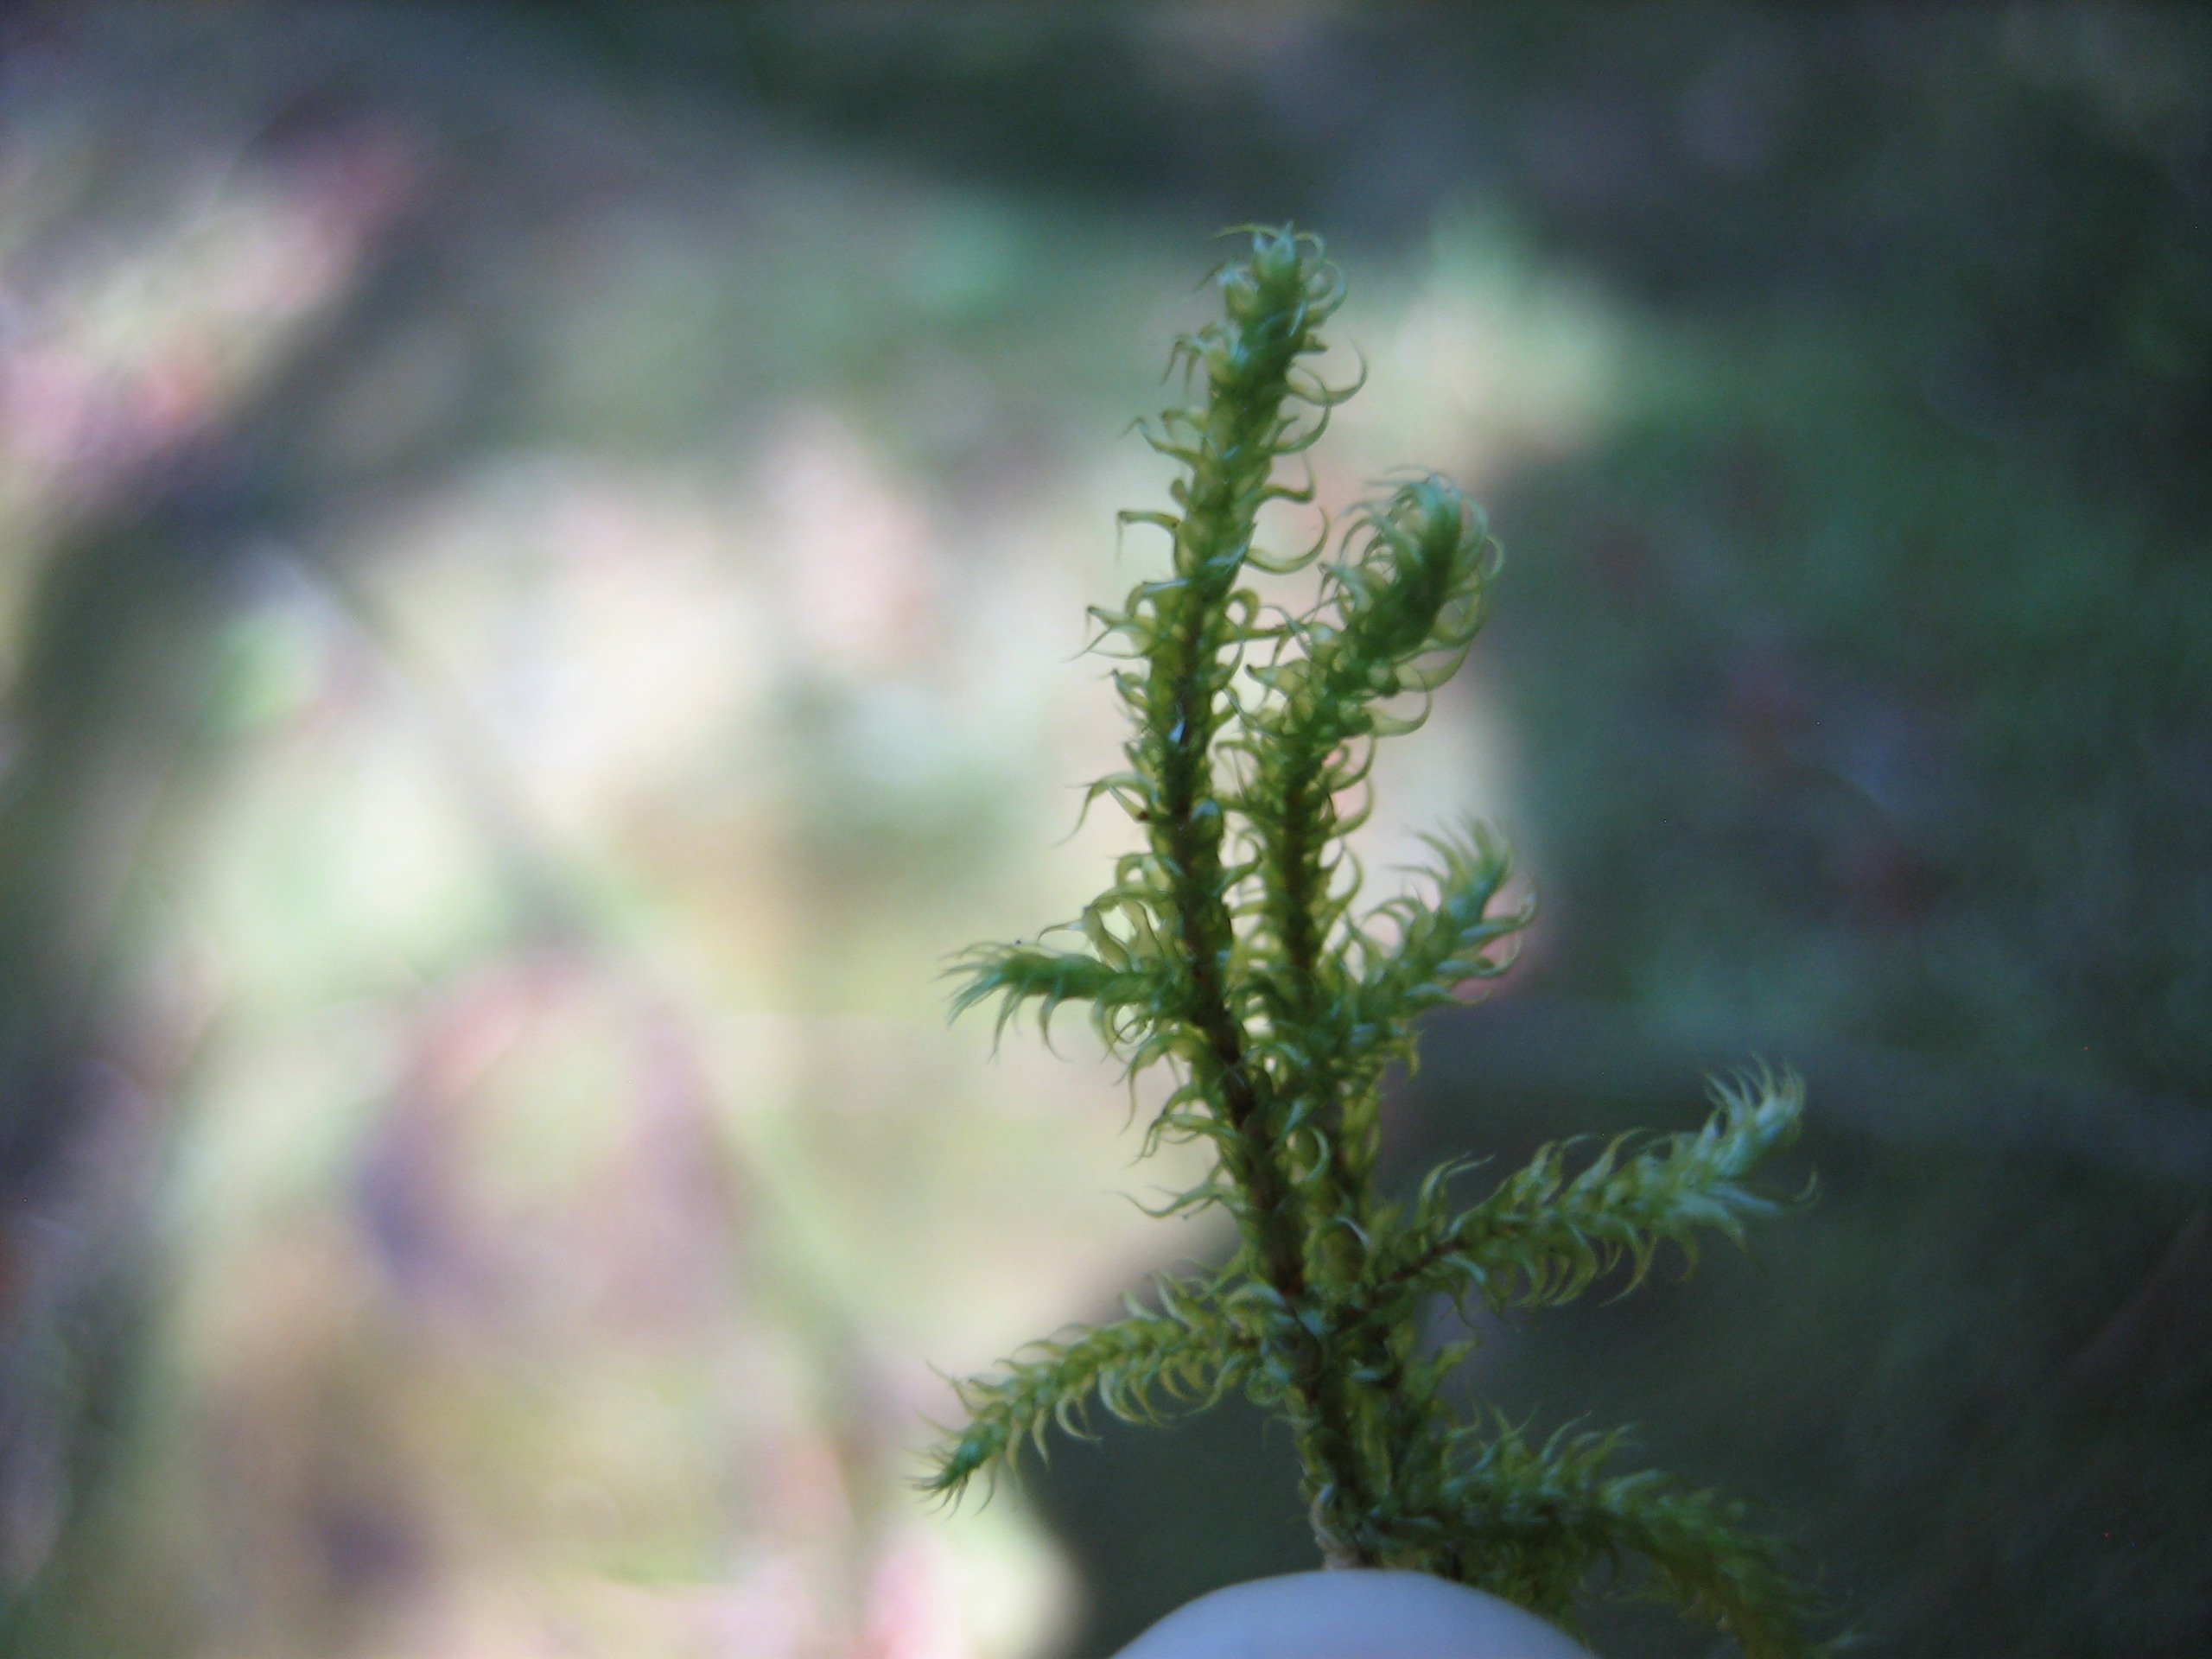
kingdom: Plantae
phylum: Bryophyta
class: Bryopsida
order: Hypnales
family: Hylocomiaceae
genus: Rhytidiadelphus
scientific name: Rhytidiadelphus loreus
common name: Ulvefod-kransemos
